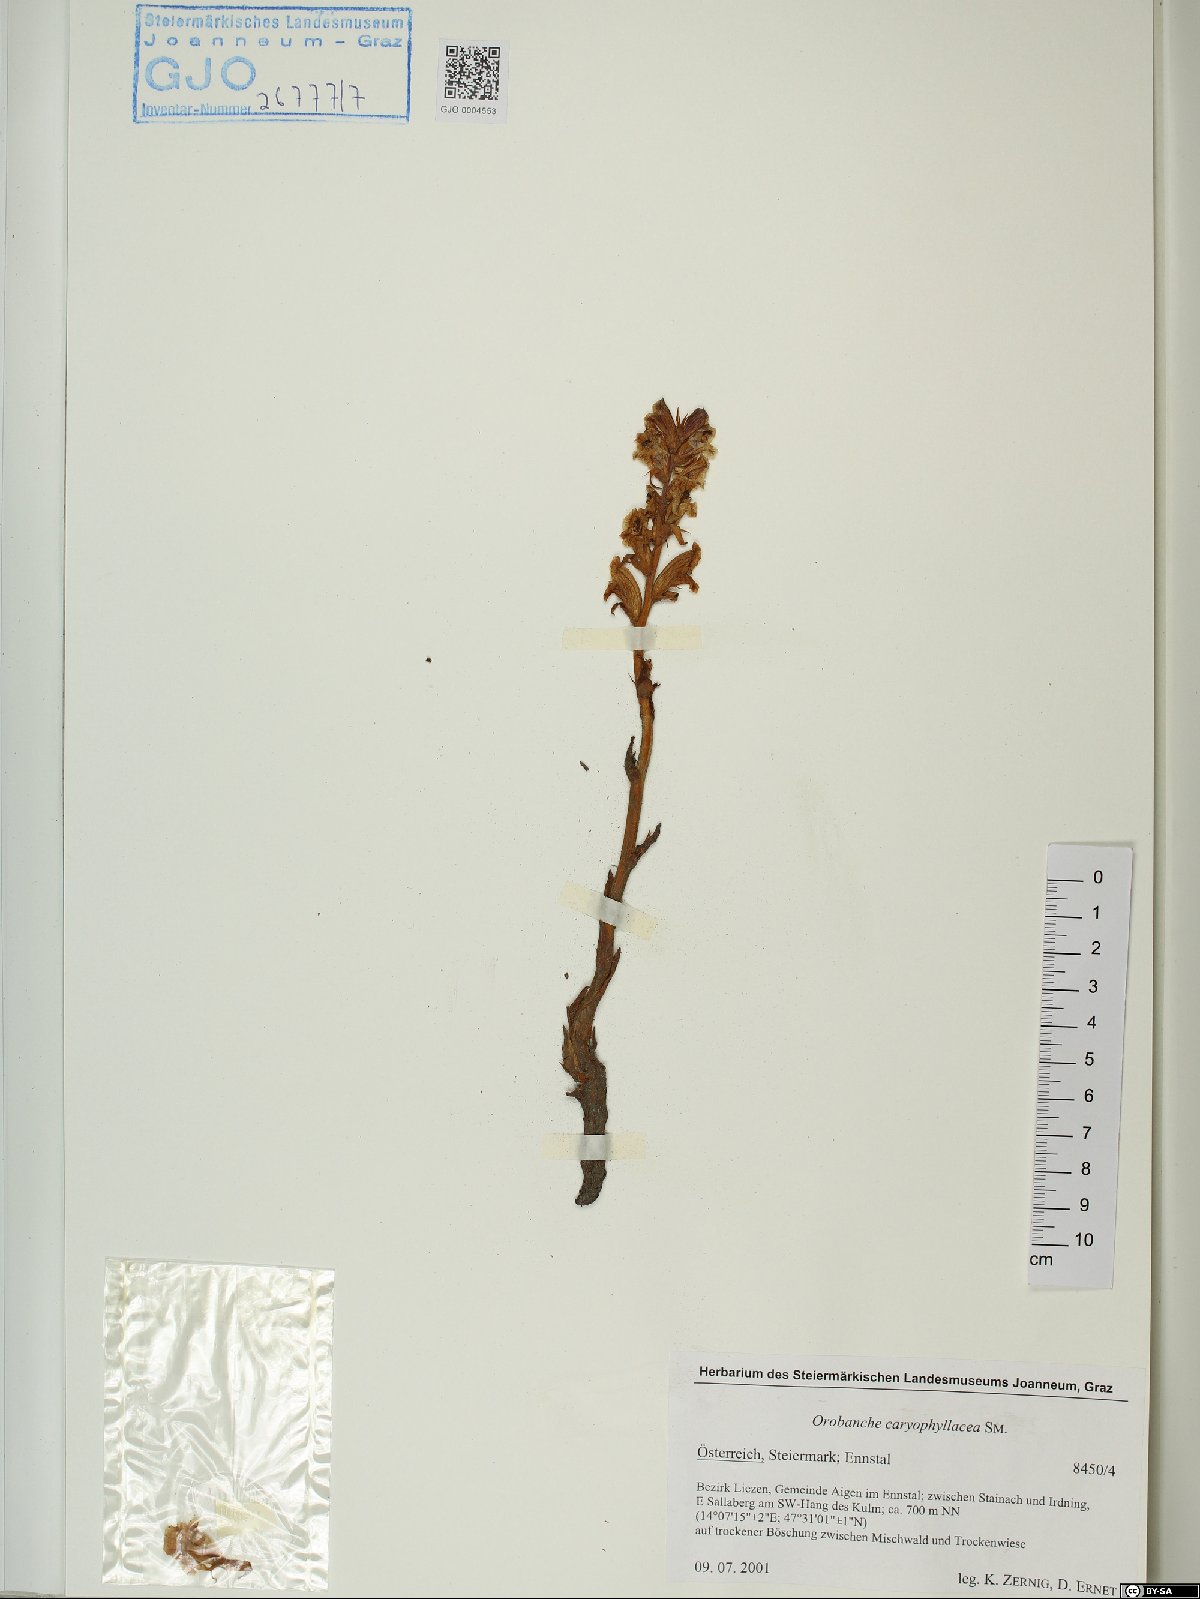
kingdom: Plantae
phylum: Tracheophyta
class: Magnoliopsida
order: Lamiales
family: Orobanchaceae
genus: Orobanche
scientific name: Orobanche caryophyllacea
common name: Bedstraw broomrape
